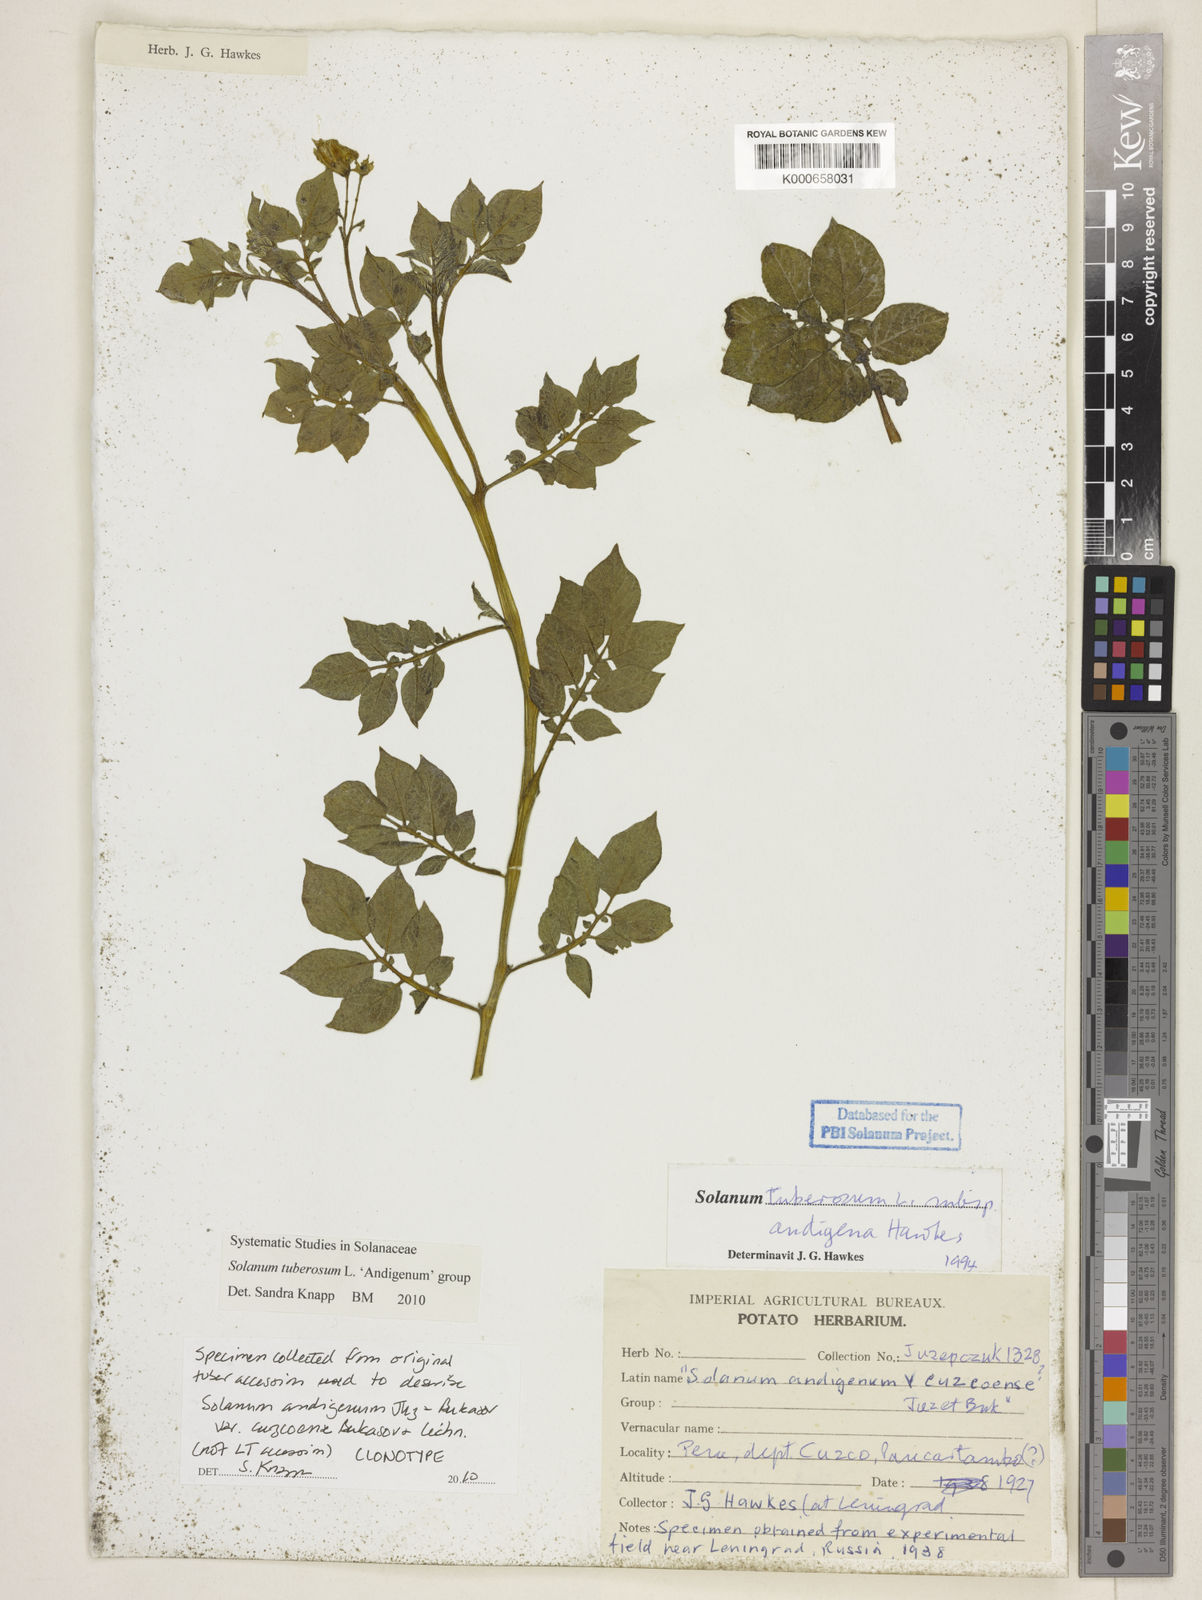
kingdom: Plantae
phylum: Tracheophyta
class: Magnoliopsida
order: Solanales
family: Solanaceae
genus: Solanum
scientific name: Solanum tuberosum
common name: Potato
